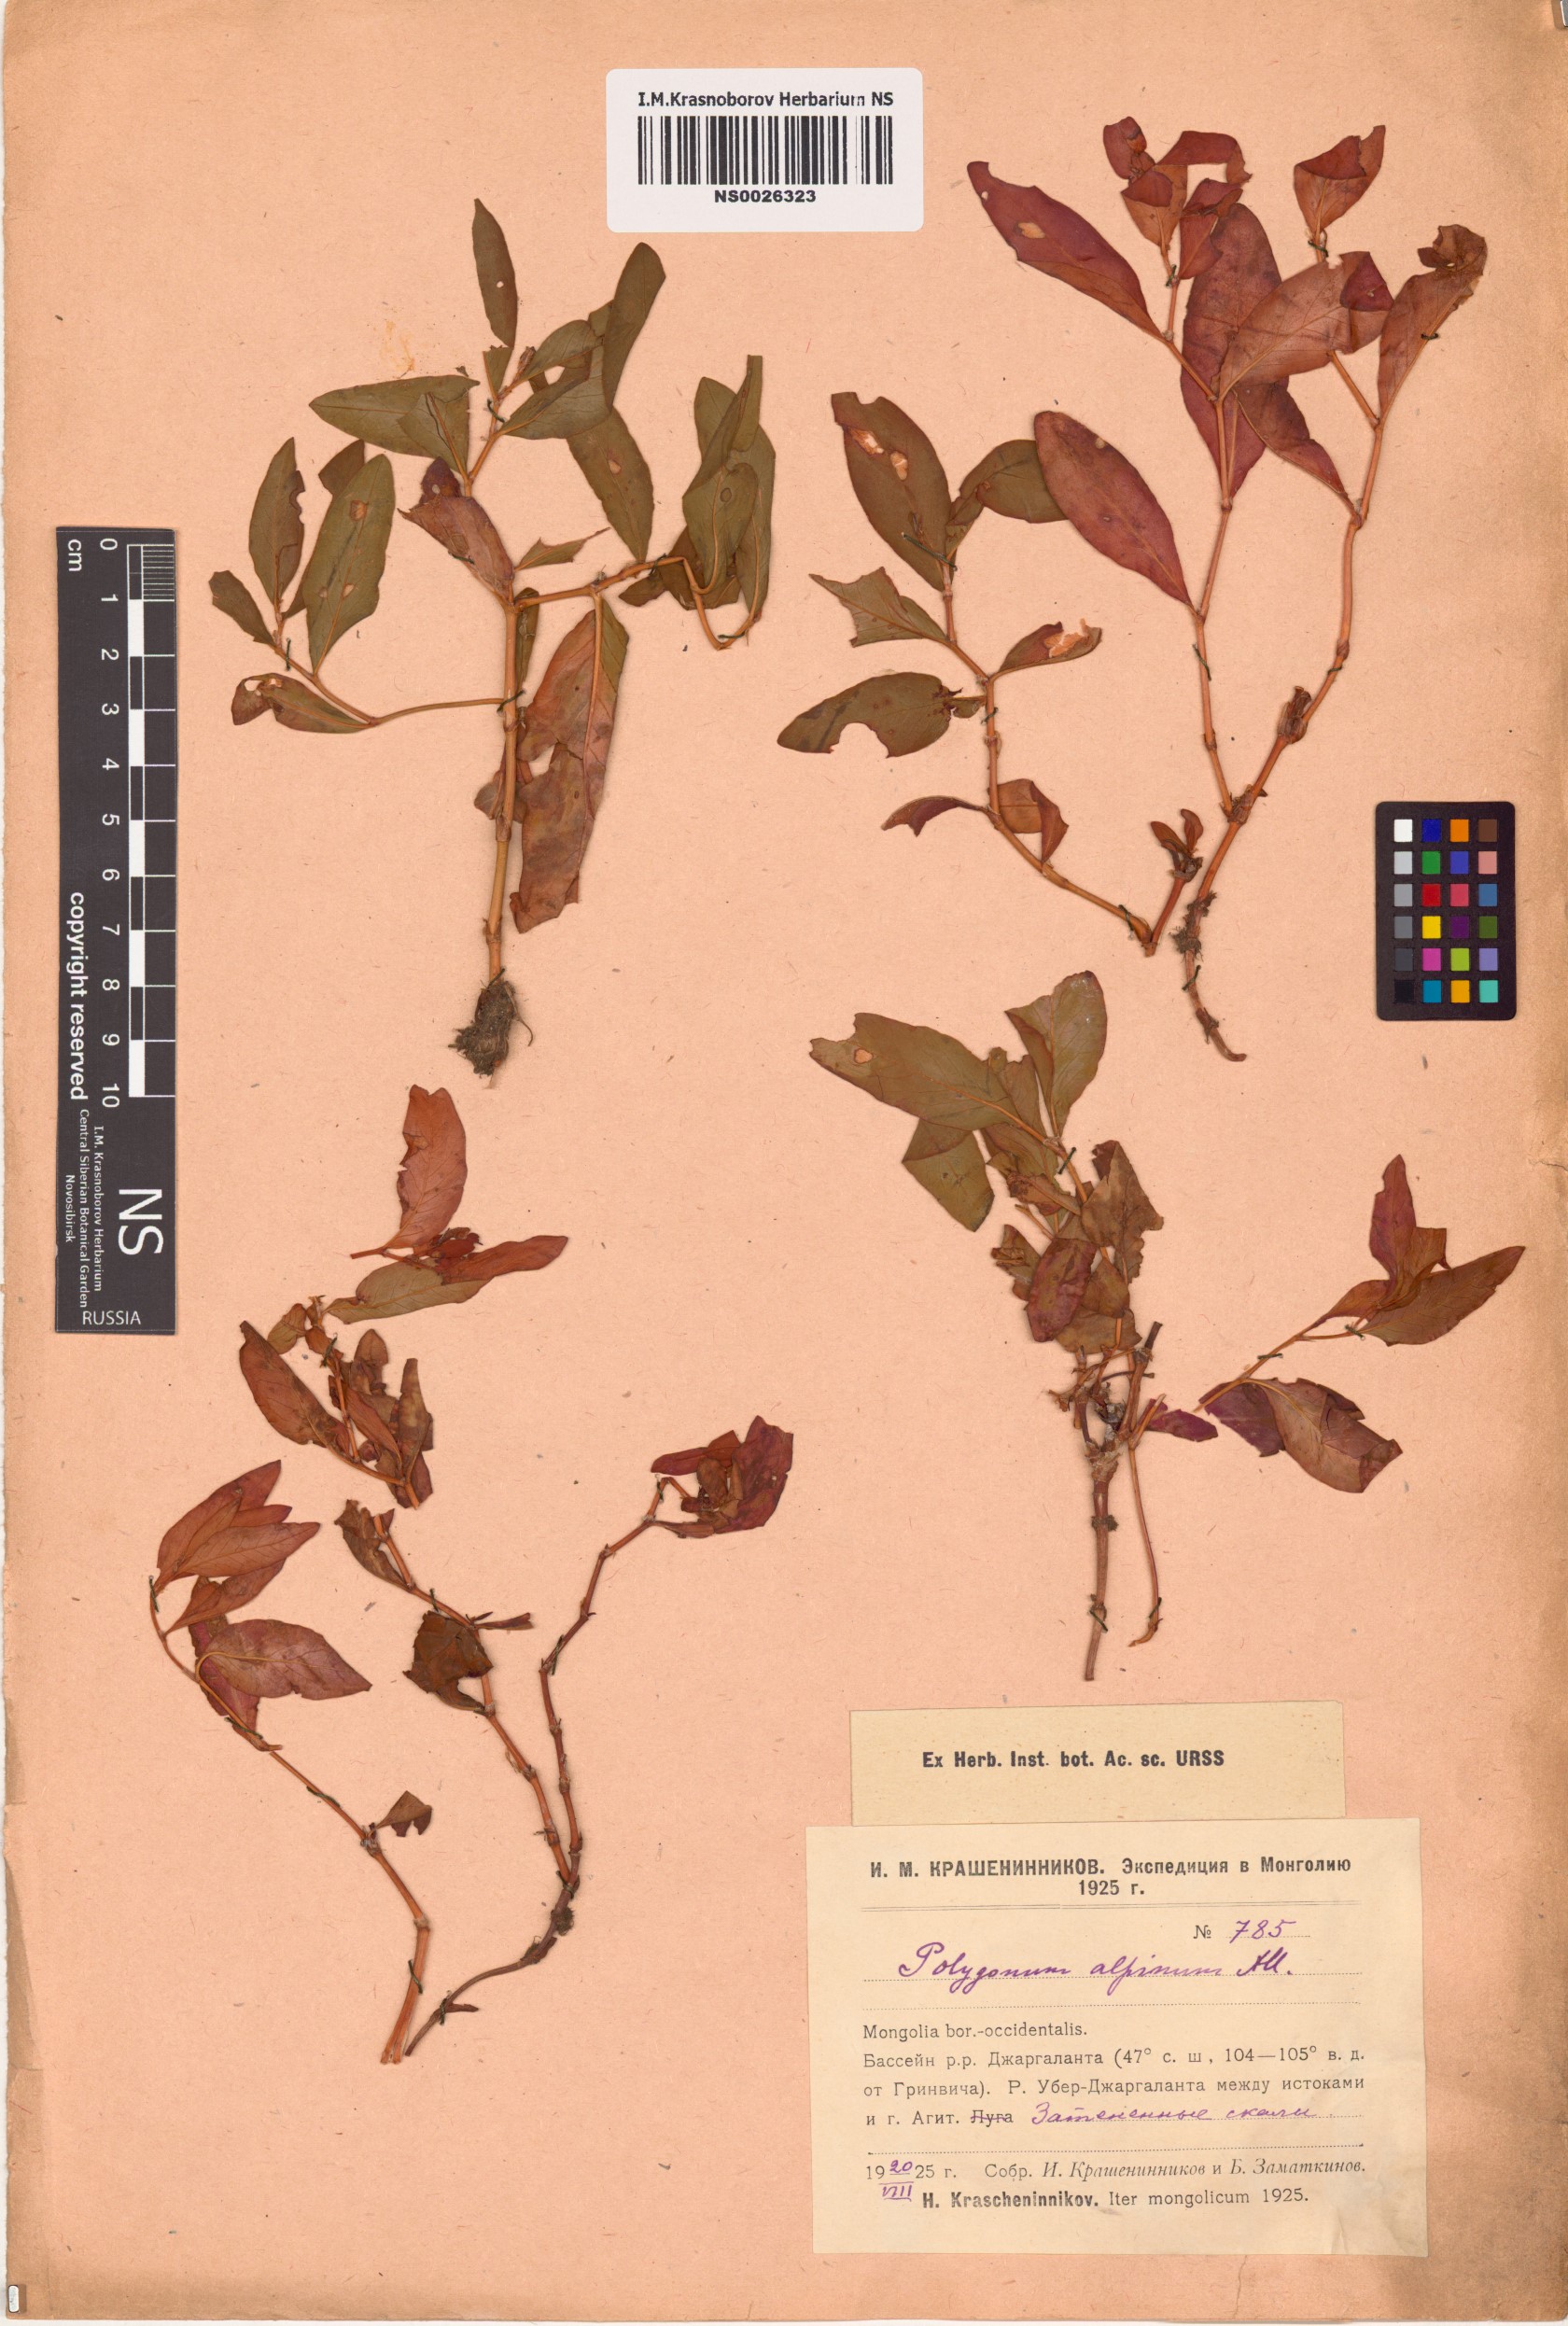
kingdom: Plantae
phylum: Tracheophyta
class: Magnoliopsida
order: Caryophyllales
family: Polygonaceae
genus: Koenigia
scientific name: Koenigia alpina
